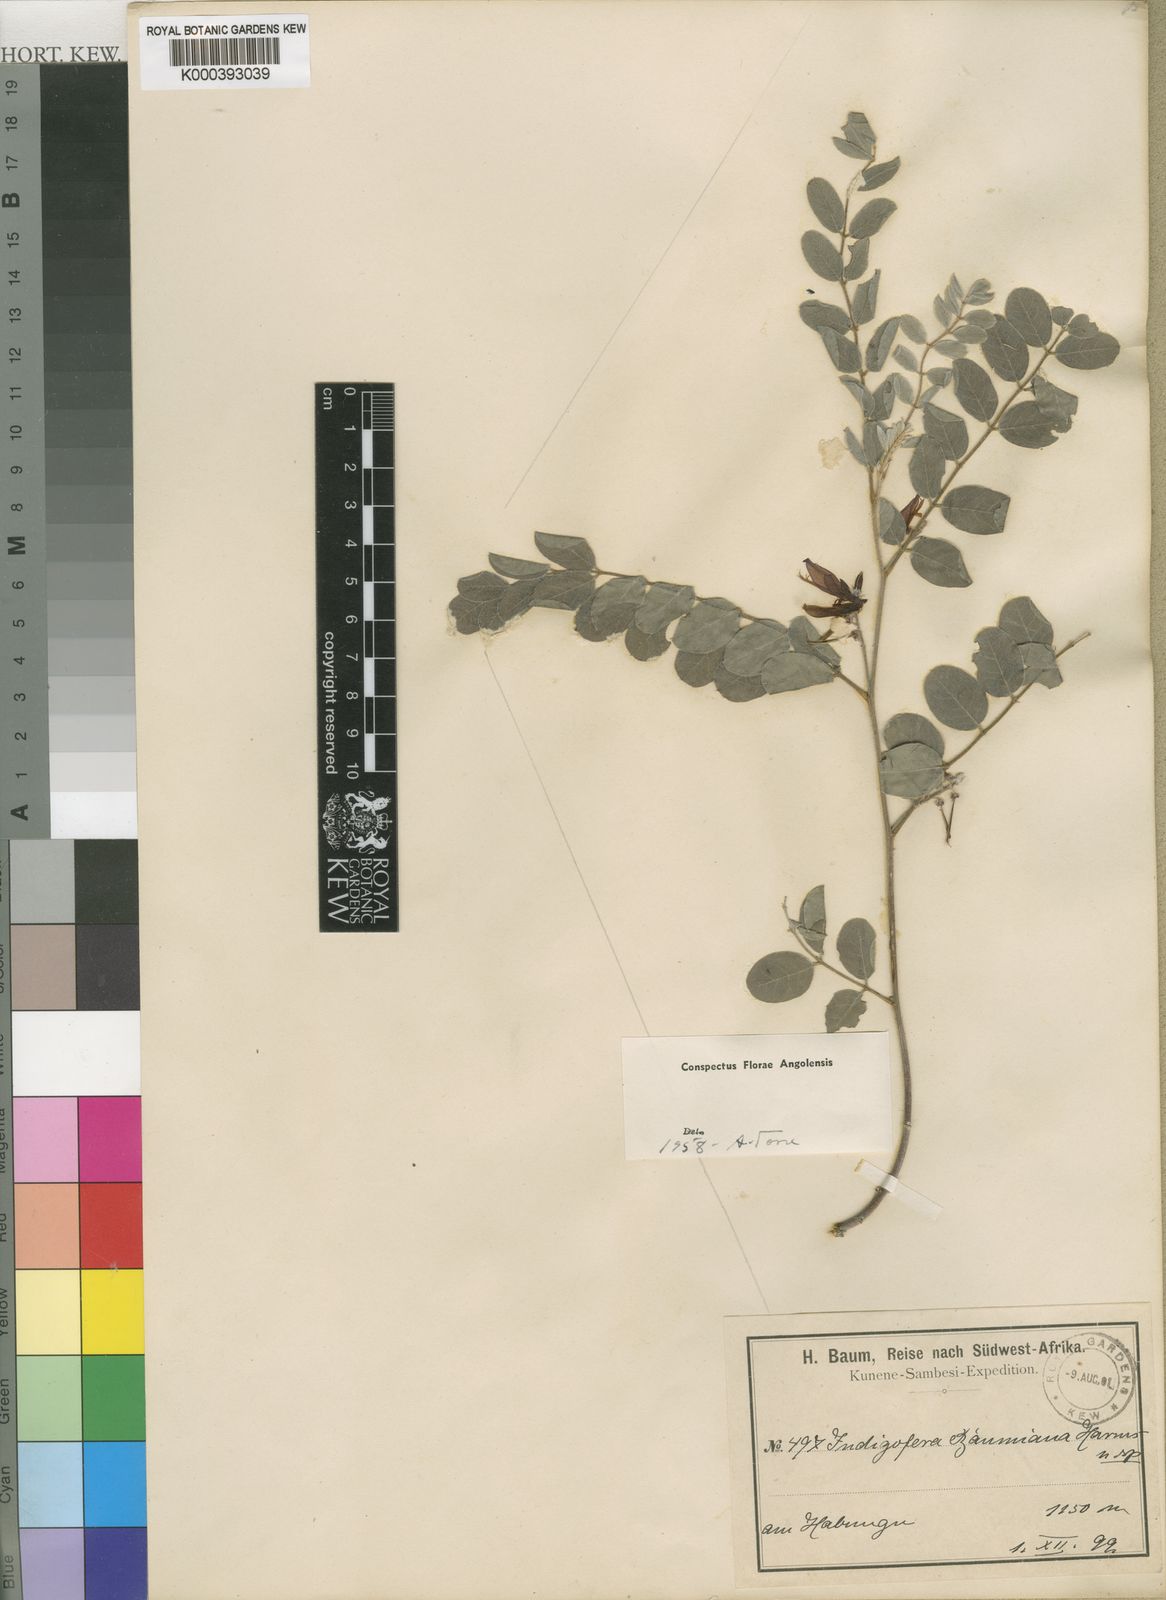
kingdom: Plantae
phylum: Tracheophyta
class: Magnoliopsida
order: Fabales
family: Fabaceae
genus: Indigofera
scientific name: Indigofera baumiana
